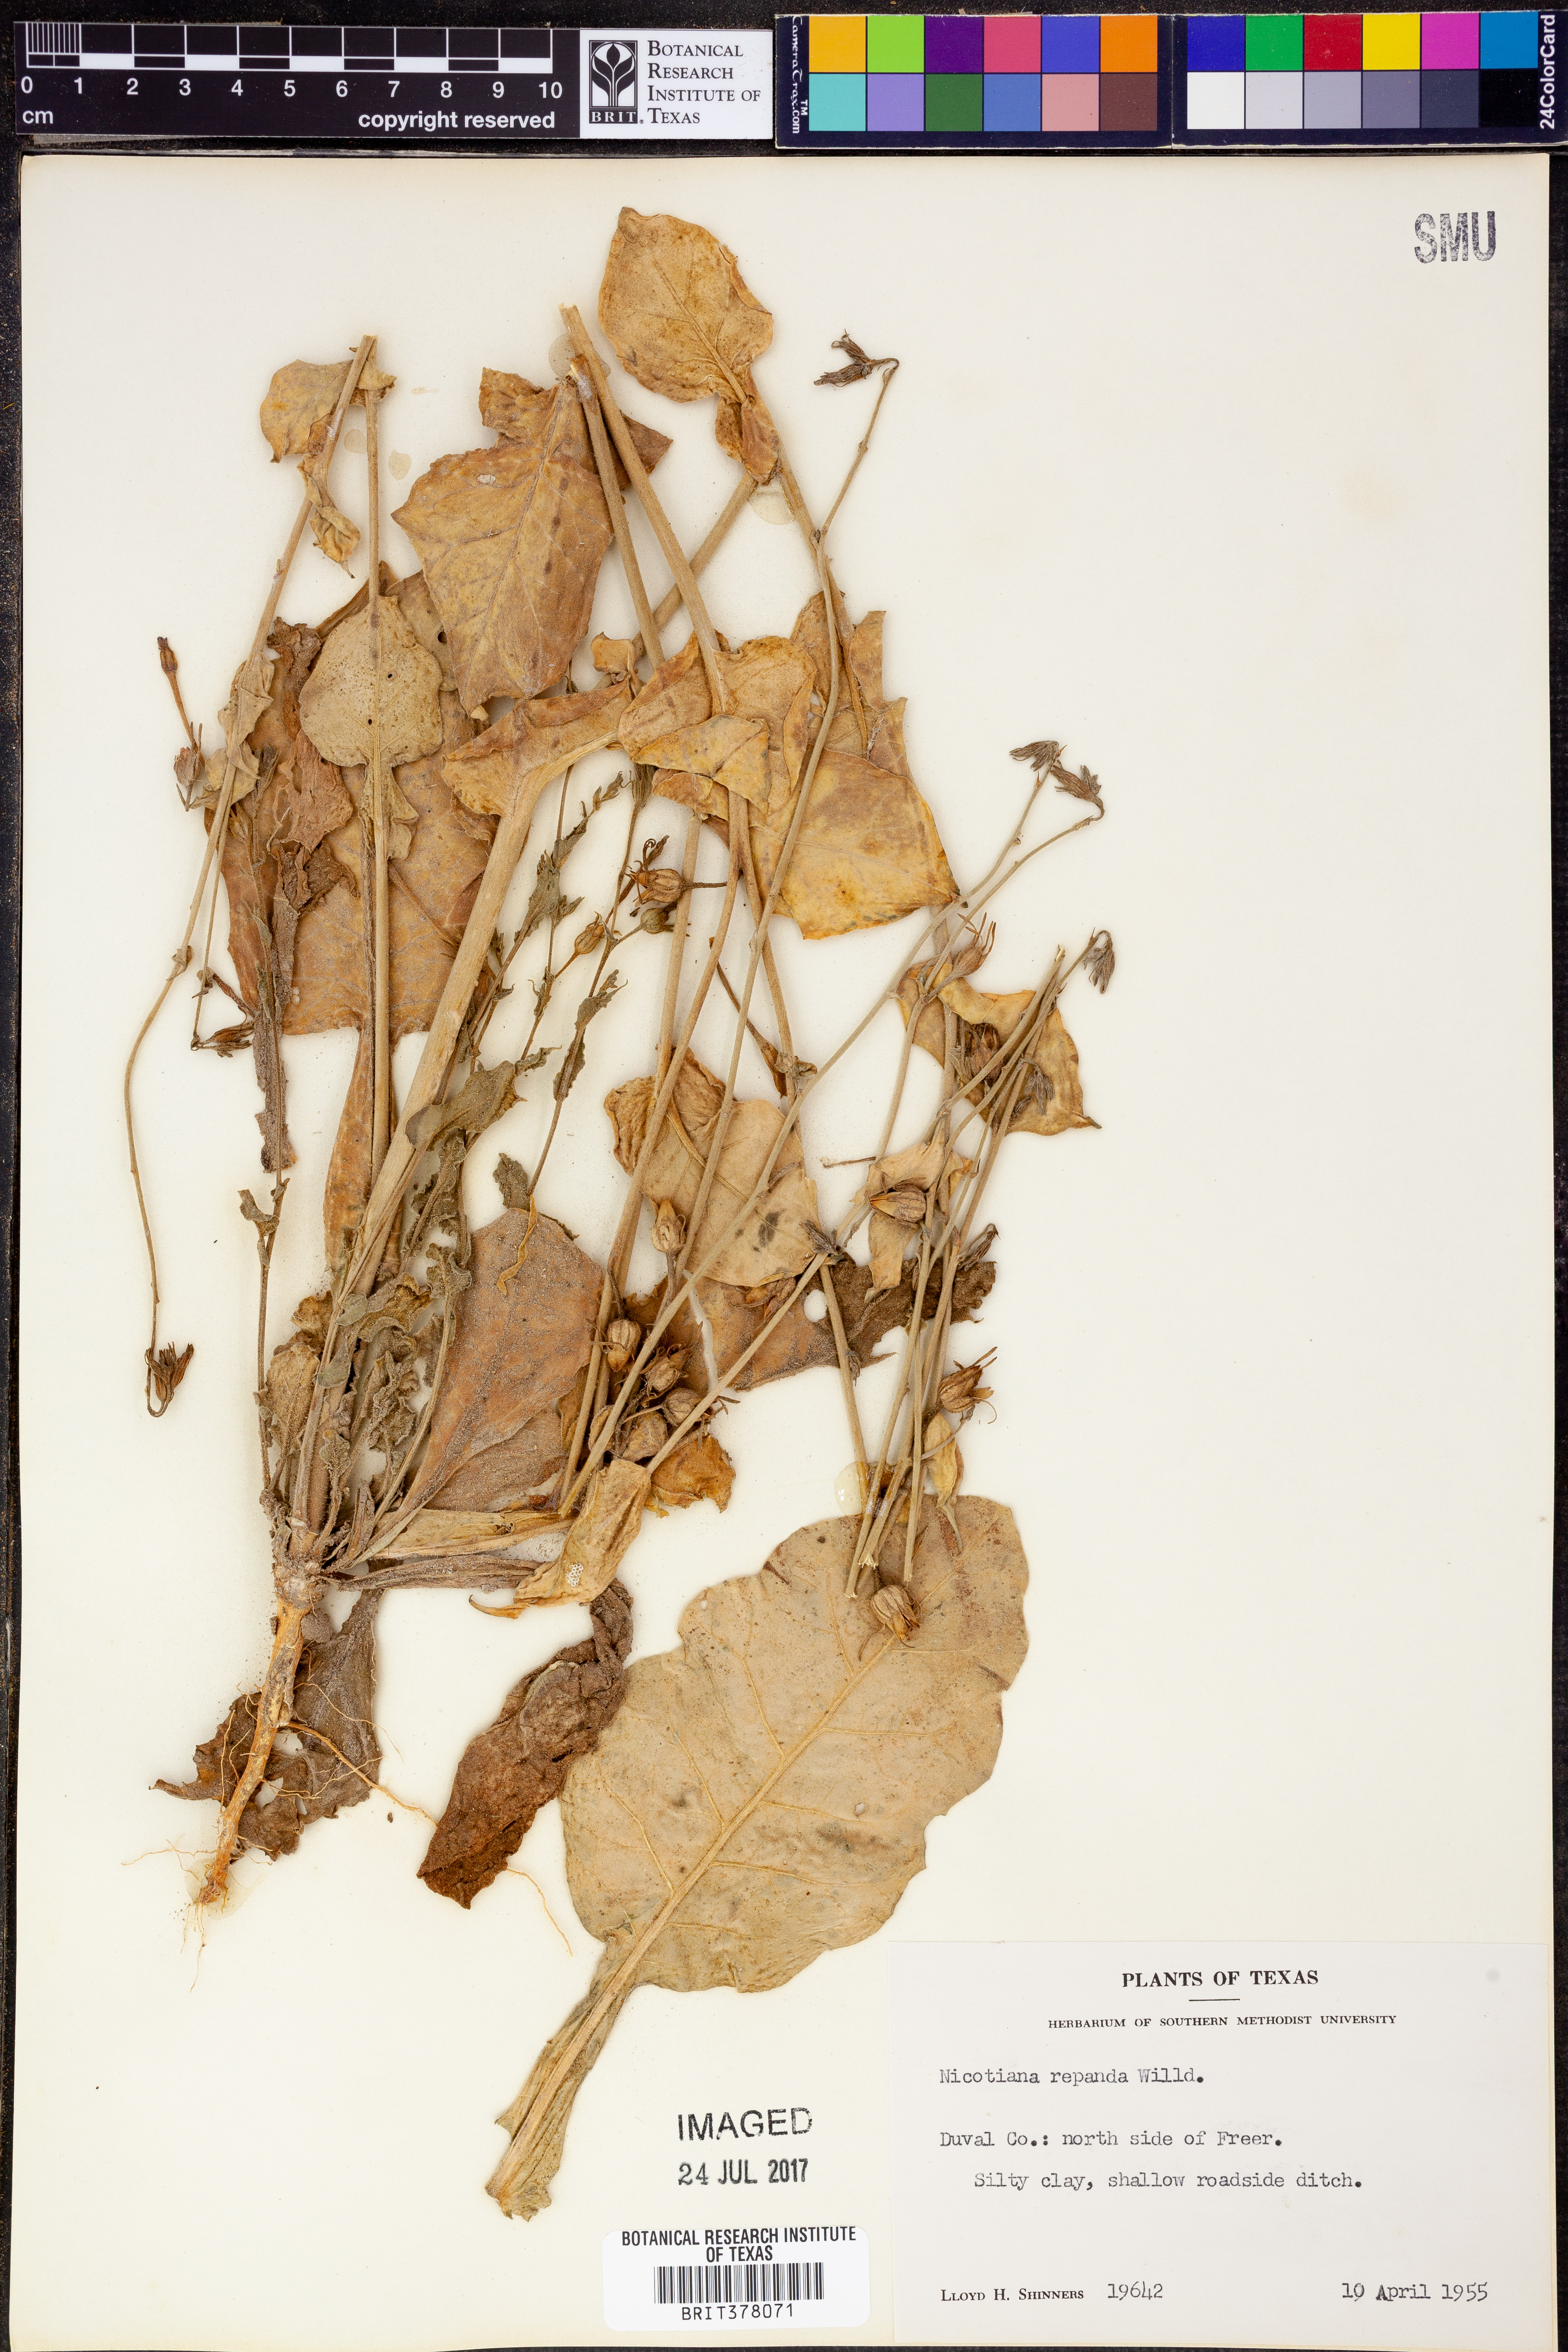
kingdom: Plantae
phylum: Tracheophyta
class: Magnoliopsida
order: Solanales
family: Solanaceae
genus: Nicotiana
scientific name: Nicotiana repanda
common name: Fiddle-leaf tobacco
